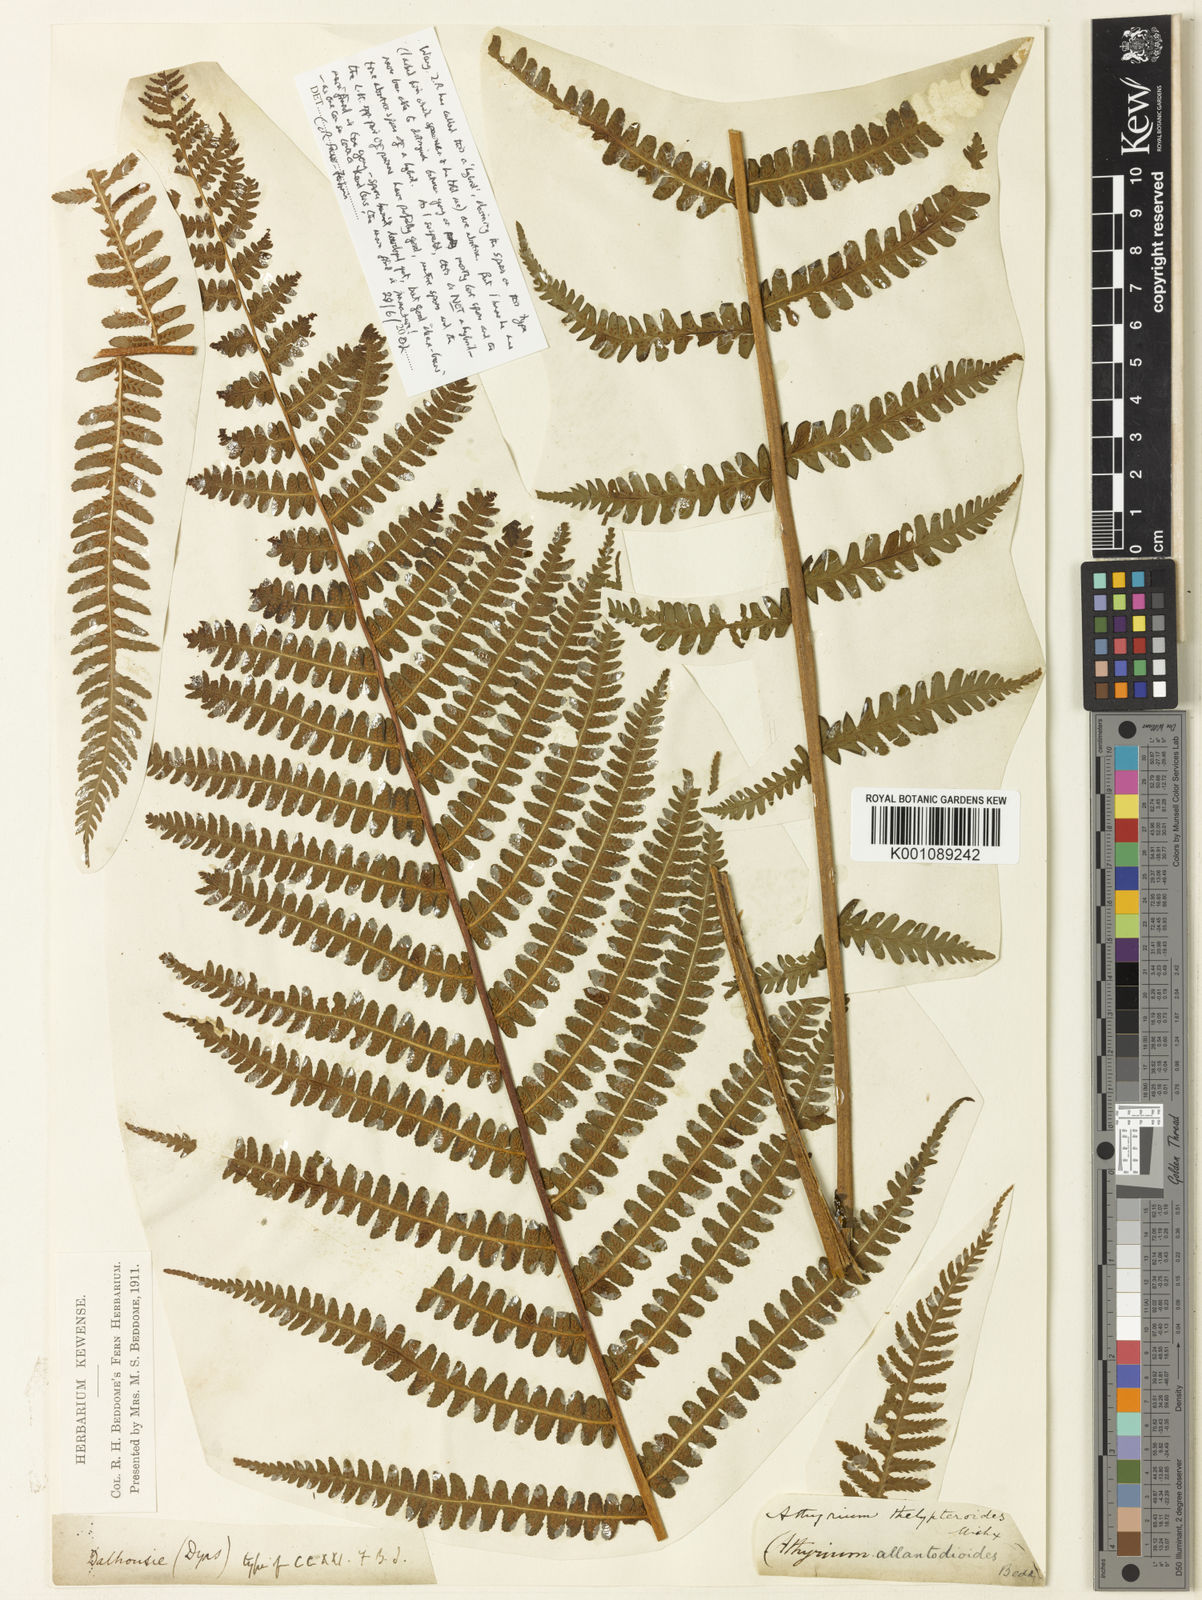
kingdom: Plantae
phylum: Tracheophyta
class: Polypodiopsida
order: Polypodiales
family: Athyriaceae
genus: Deparia
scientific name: Deparia allantodioides
